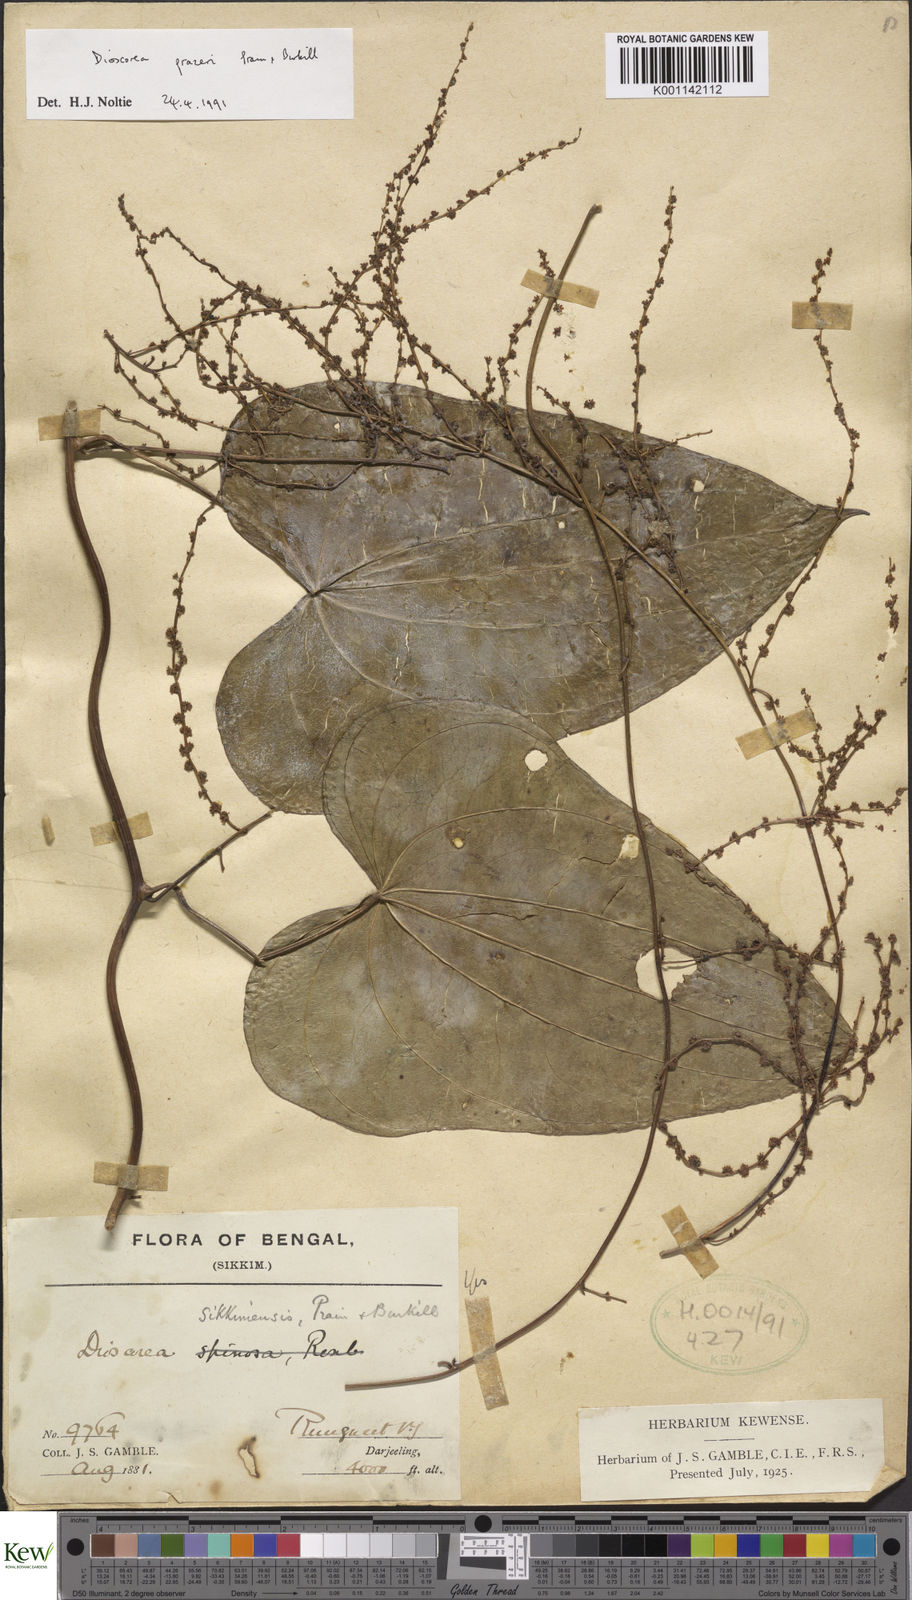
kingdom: Plantae
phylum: Tracheophyta
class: Liliopsida
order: Dioscoreales
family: Dioscoreaceae
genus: Dioscorea
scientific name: Dioscorea prazeri
